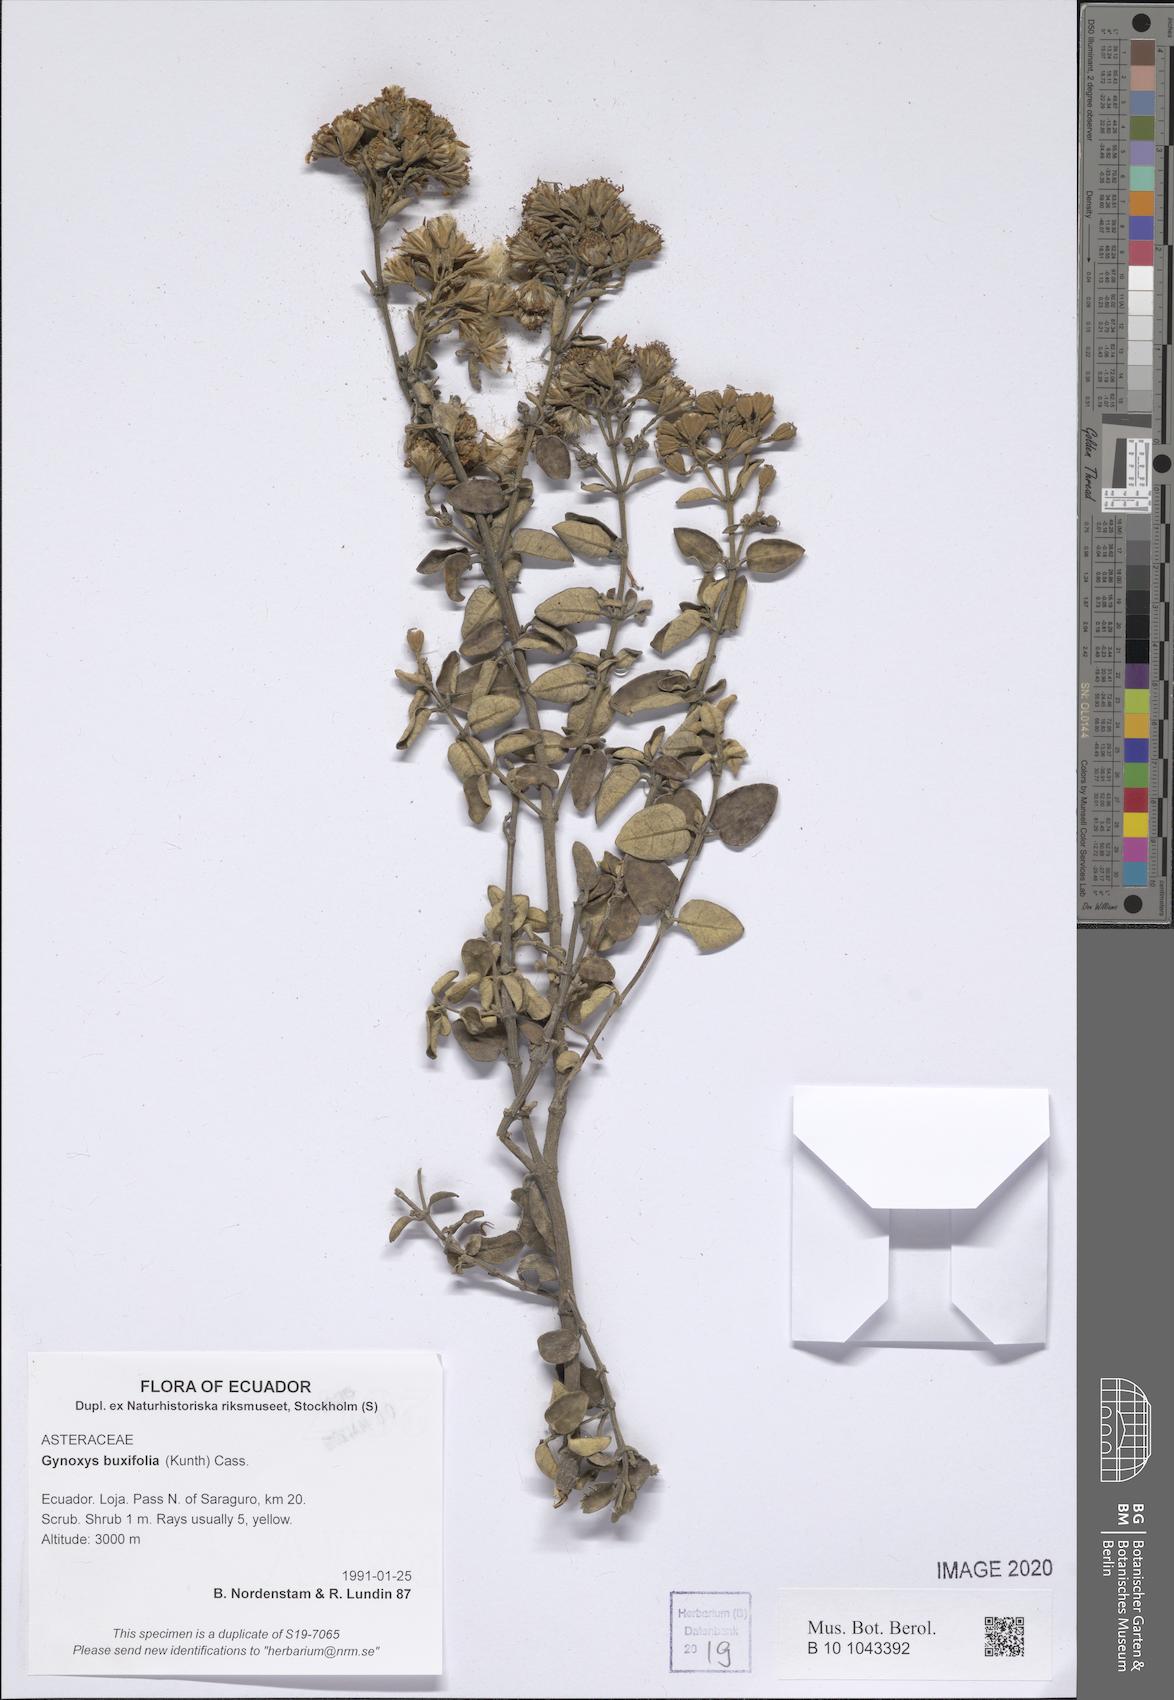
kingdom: Plantae
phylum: Tracheophyta
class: Magnoliopsida
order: Asterales
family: Asteraceae
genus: Gynoxys
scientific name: Gynoxys buxifolia
